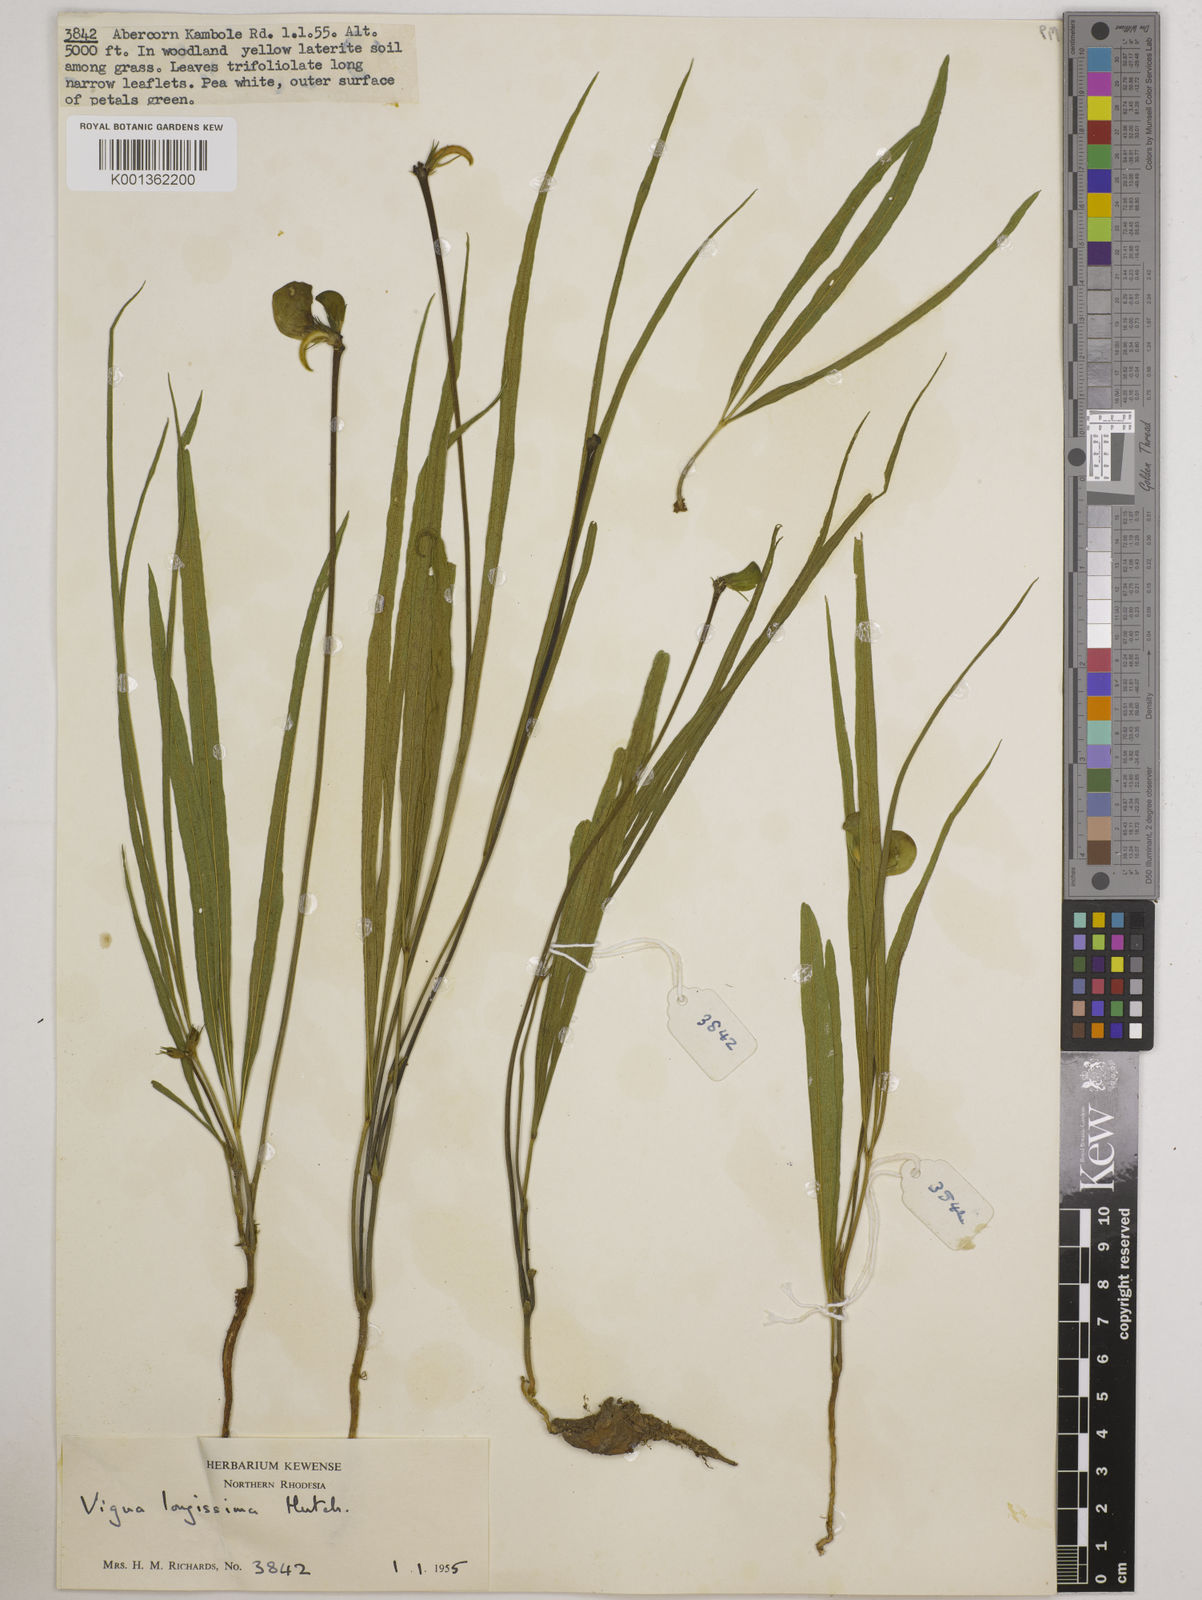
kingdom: Plantae
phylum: Tracheophyta
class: Magnoliopsida
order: Fabales
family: Fabaceae
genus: Vigna
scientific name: Vigna longissima
